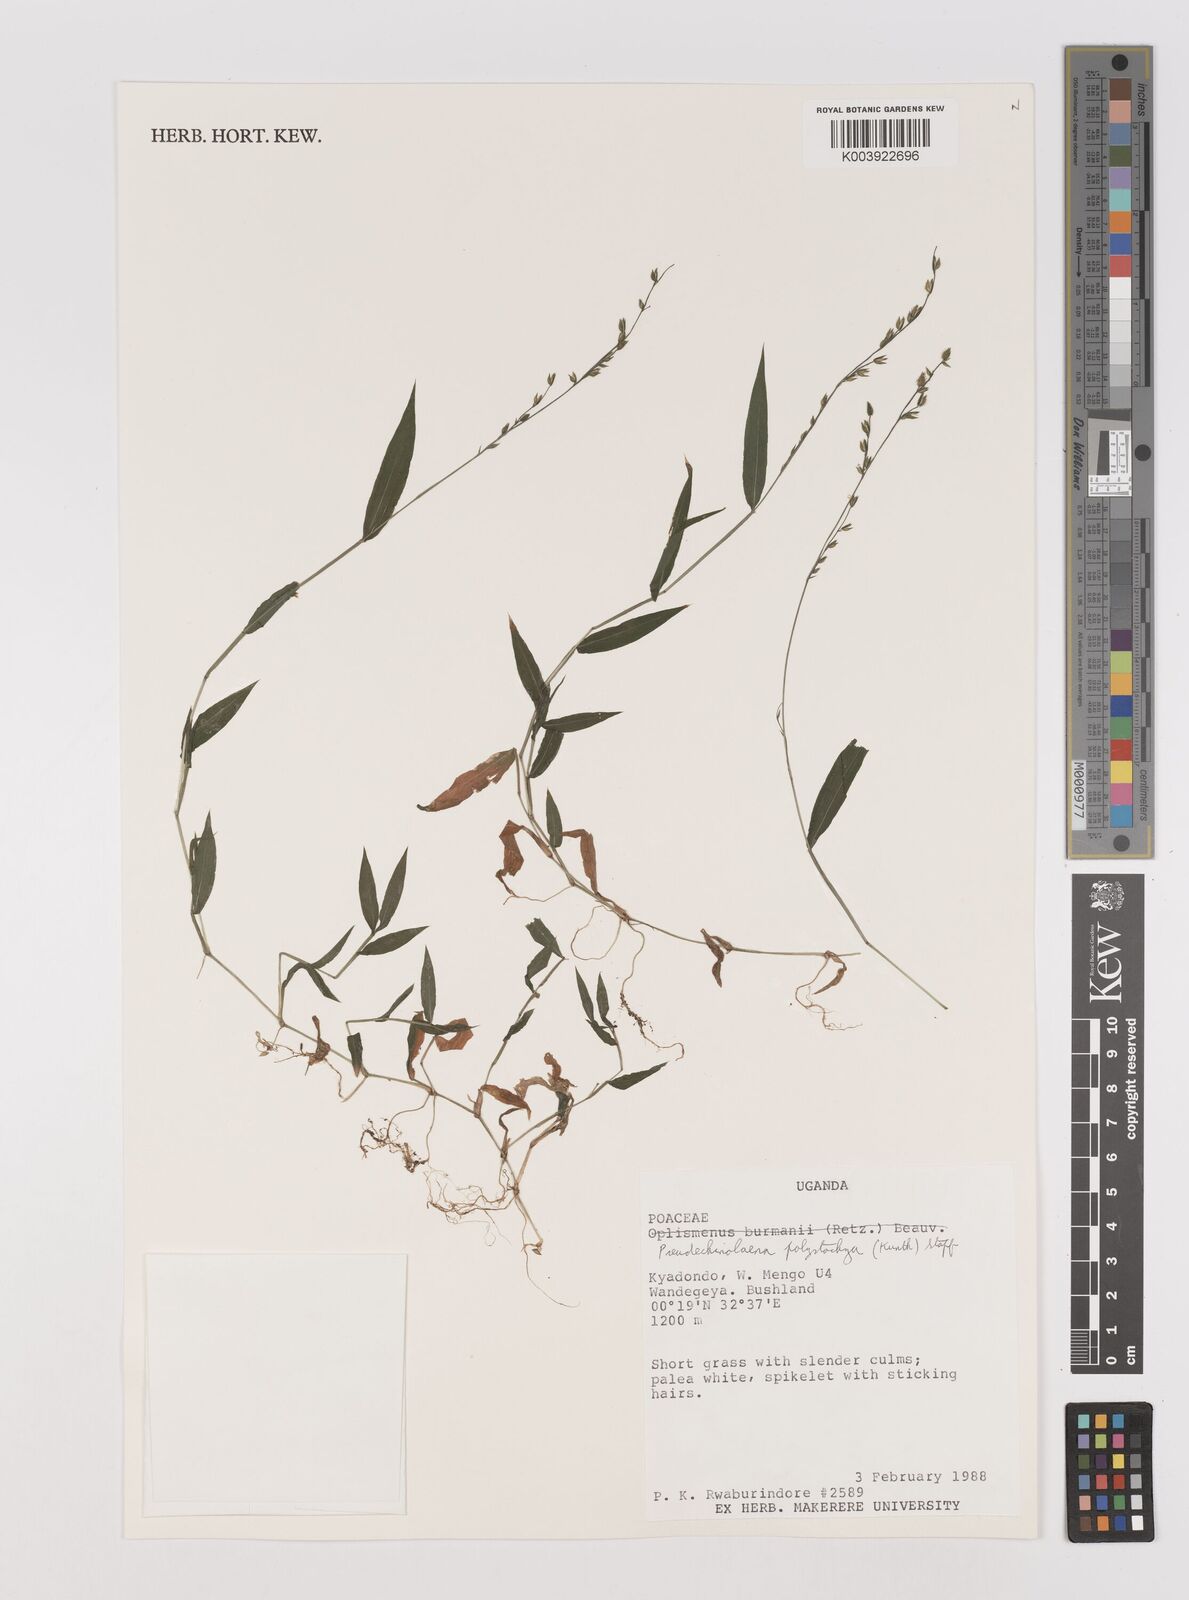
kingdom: Plantae
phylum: Tracheophyta
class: Liliopsida
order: Poales
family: Poaceae
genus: Pseudechinolaena
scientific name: Pseudechinolaena polystachya
